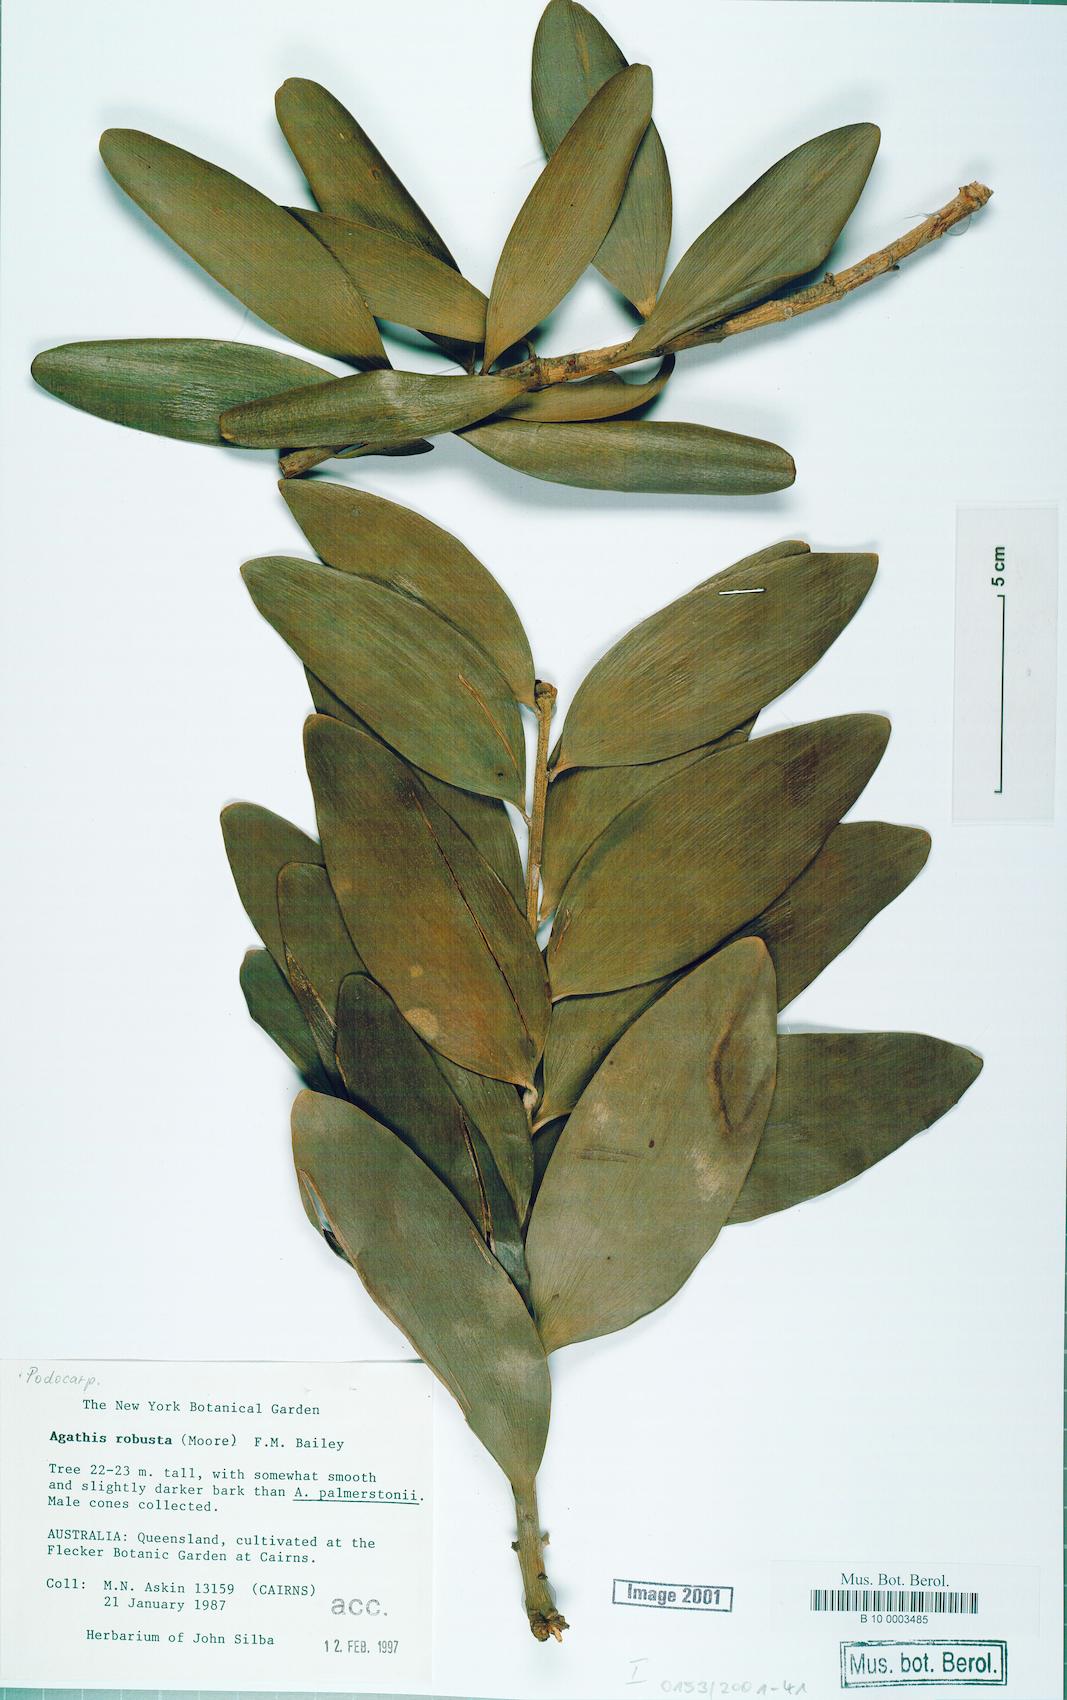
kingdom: Plantae
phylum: Tracheophyta
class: Pinopsida
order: Pinales
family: Araucariaceae
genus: Agathis
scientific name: Agathis robusta
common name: Australian-kauri
